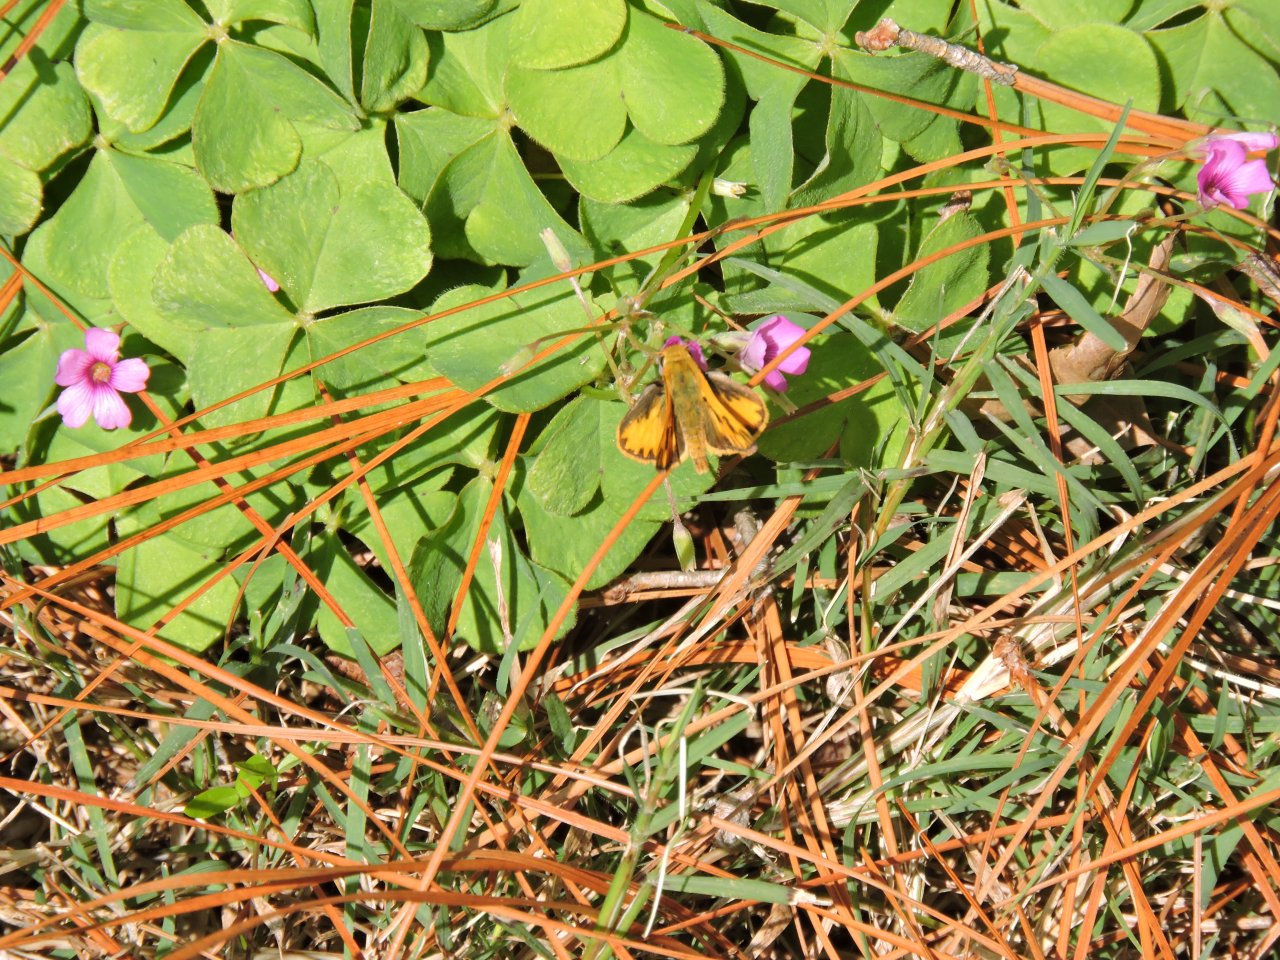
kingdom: Animalia
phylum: Arthropoda
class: Insecta
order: Lepidoptera
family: Hesperiidae
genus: Hylephila
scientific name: Hylephila phyleus
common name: Fiery Skipper
